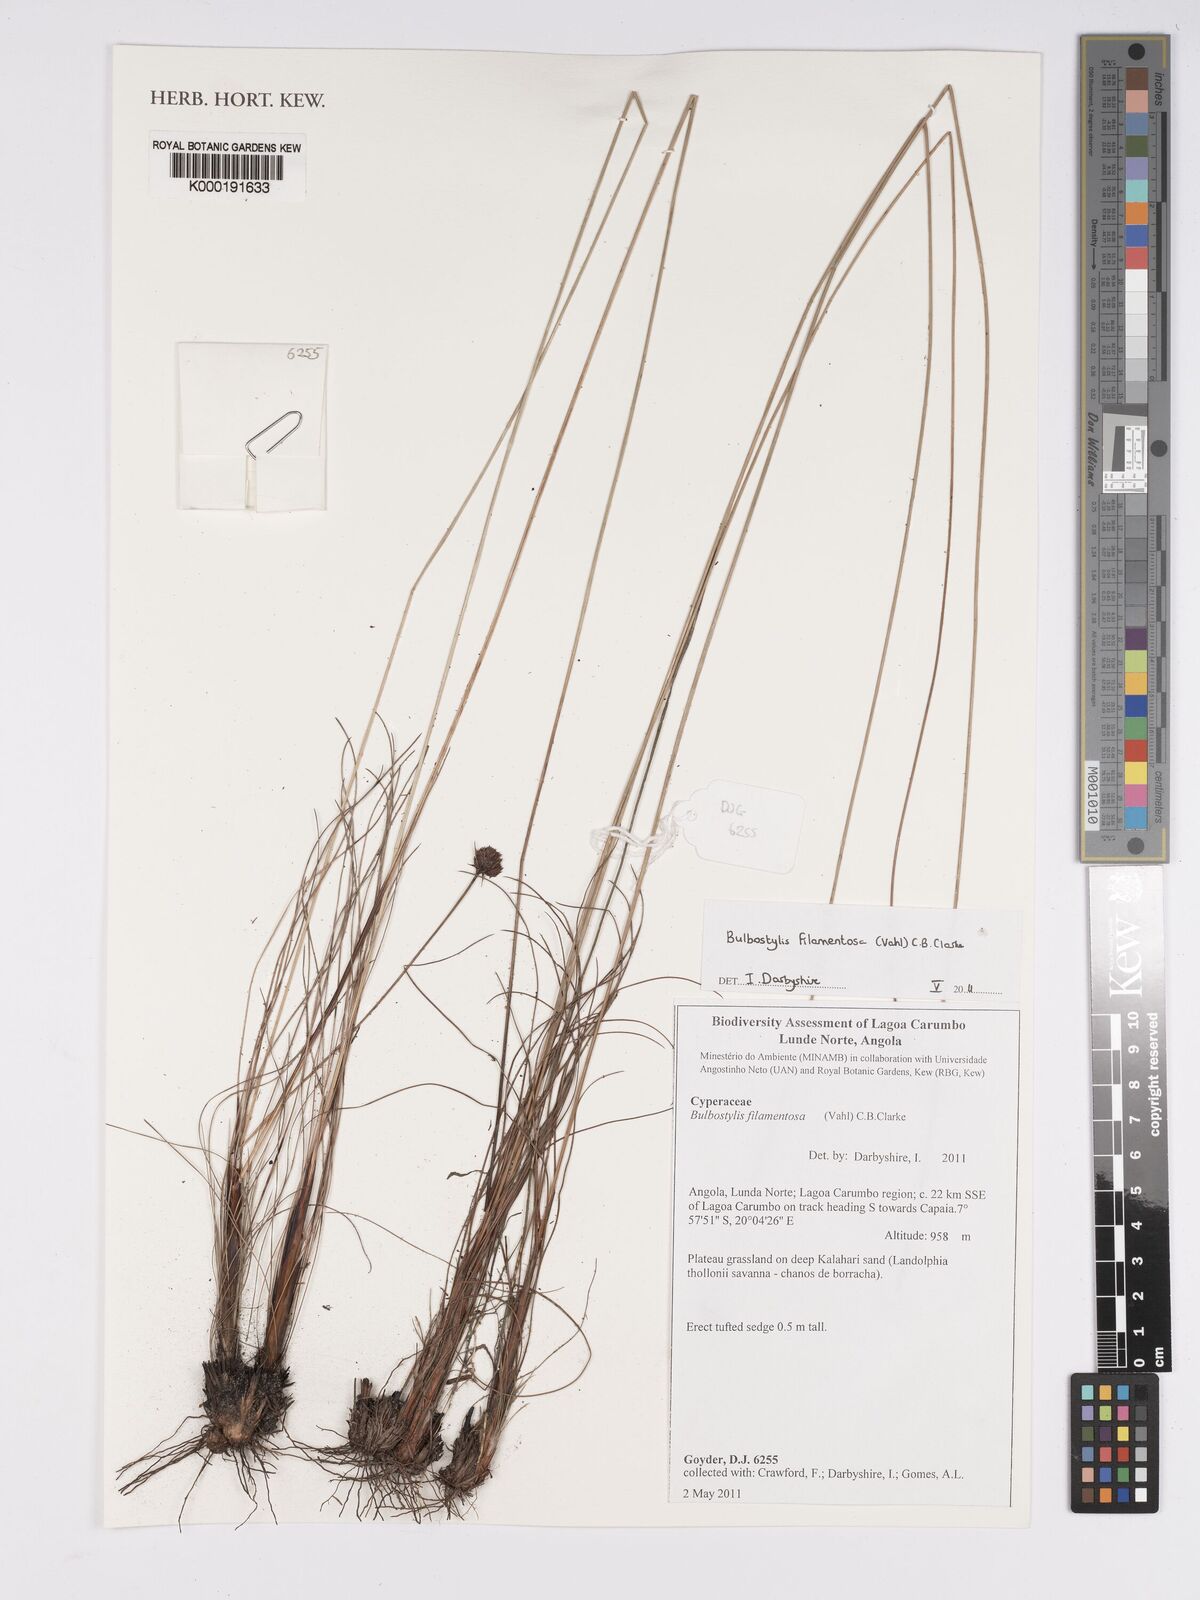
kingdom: Plantae
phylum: Tracheophyta
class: Liliopsida
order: Poales
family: Cyperaceae
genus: Bulbostylis
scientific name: Bulbostylis filamentosa
